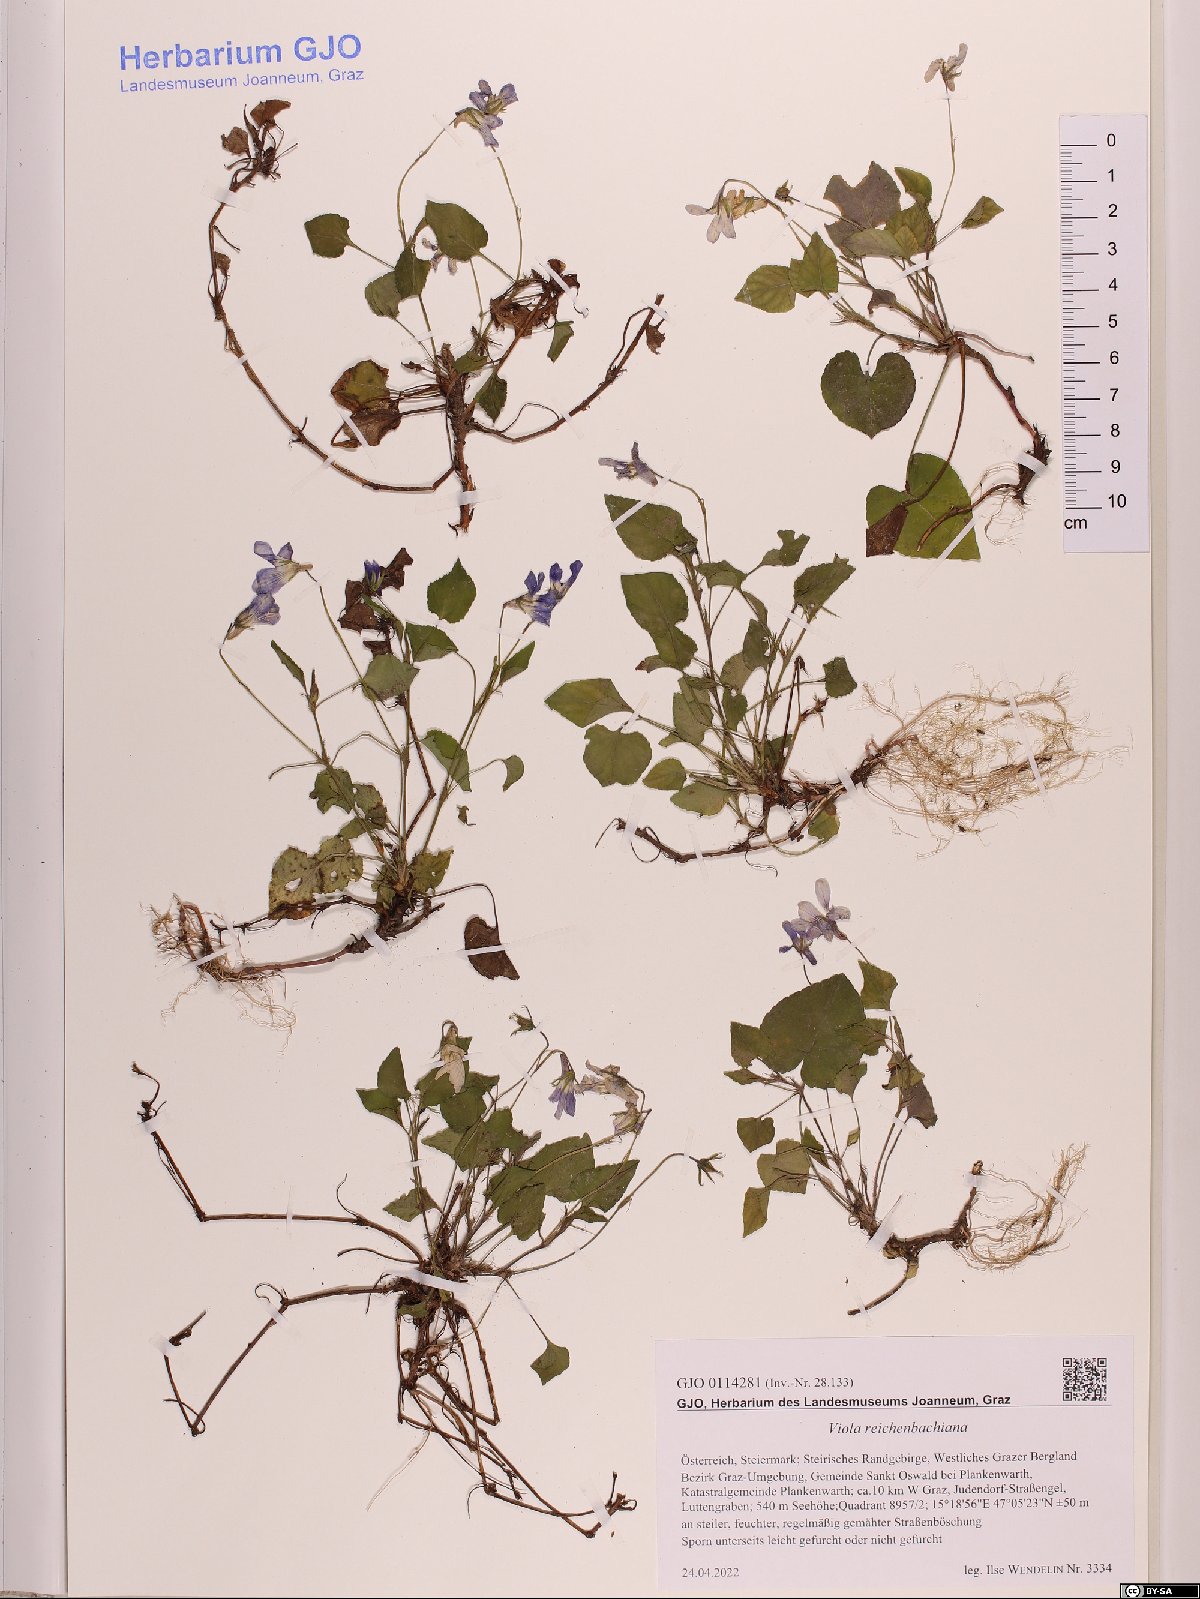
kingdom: Plantae
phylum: Tracheophyta
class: Magnoliopsida
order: Malpighiales
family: Violaceae
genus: Viola
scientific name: Viola reichenbachiana
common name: Early dog-violet
